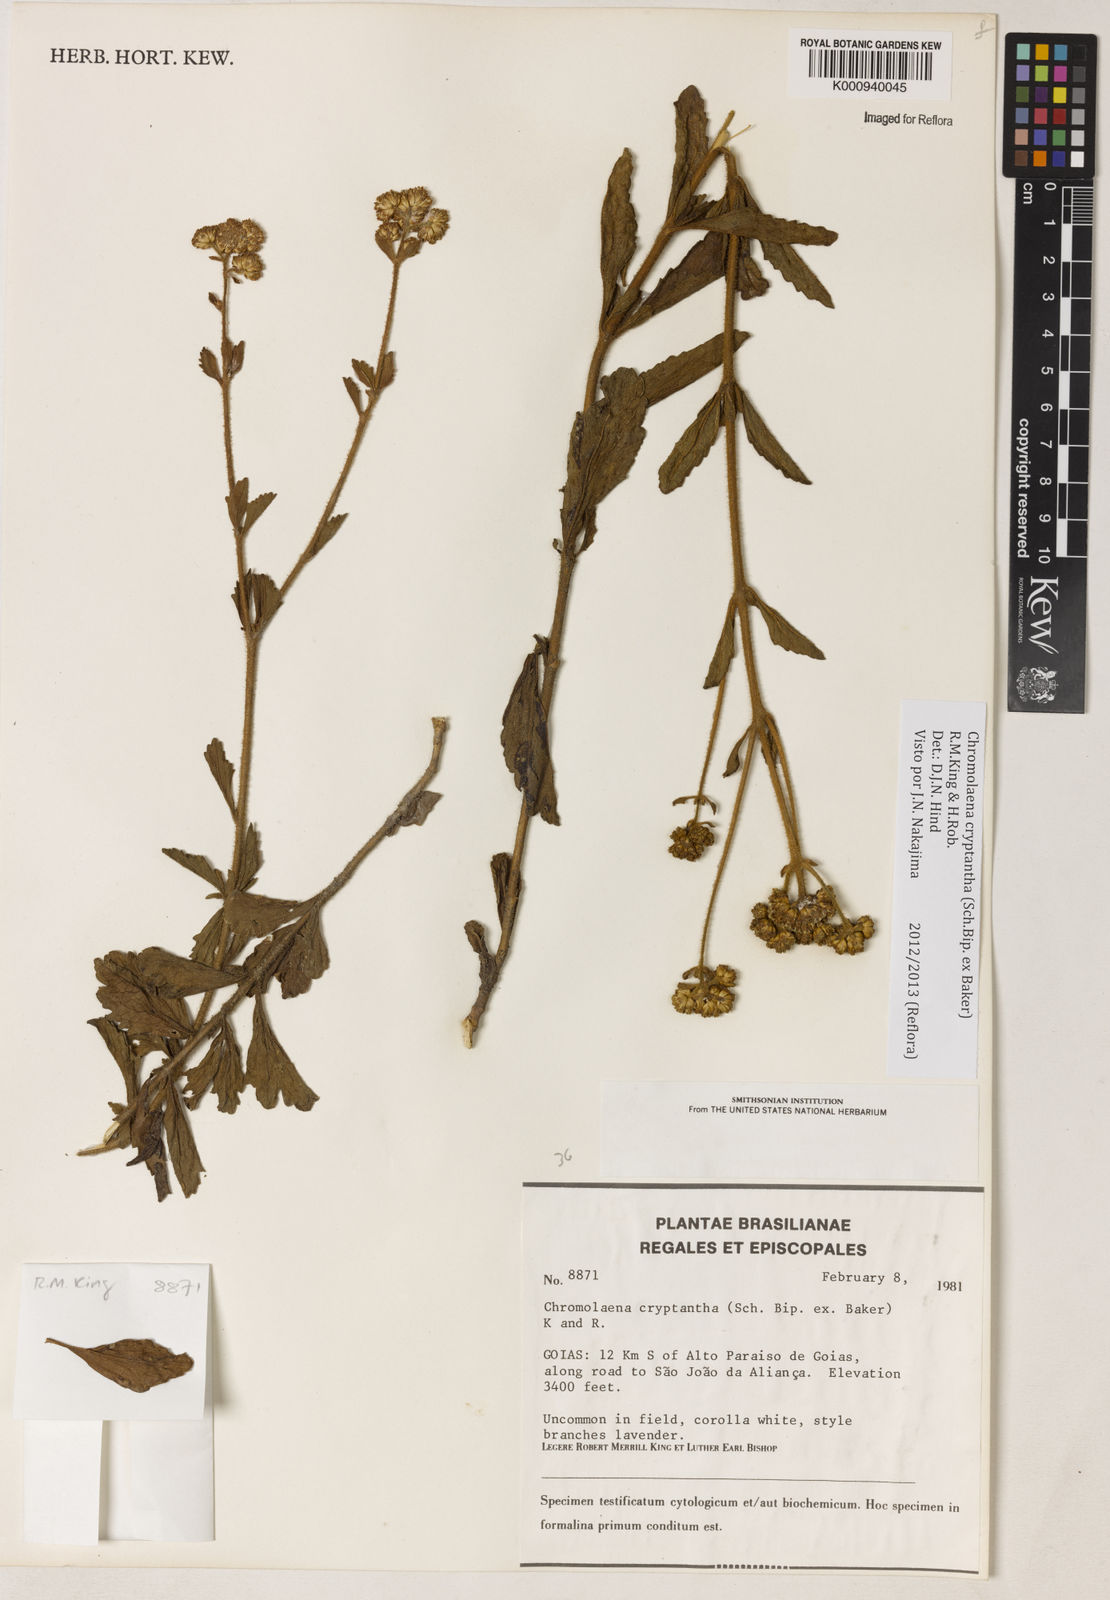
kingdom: Plantae
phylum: Tracheophyta
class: Magnoliopsida
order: Asterales
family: Asteraceae
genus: Chromolaena
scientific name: Chromolaena cryptantha
